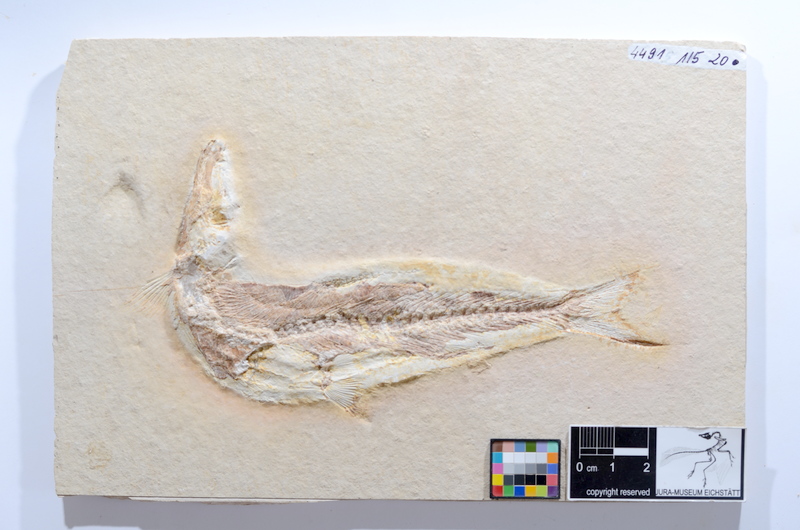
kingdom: Animalia
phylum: Chordata
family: Ascalaboidae
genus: Tharsis
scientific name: Tharsis dubius
